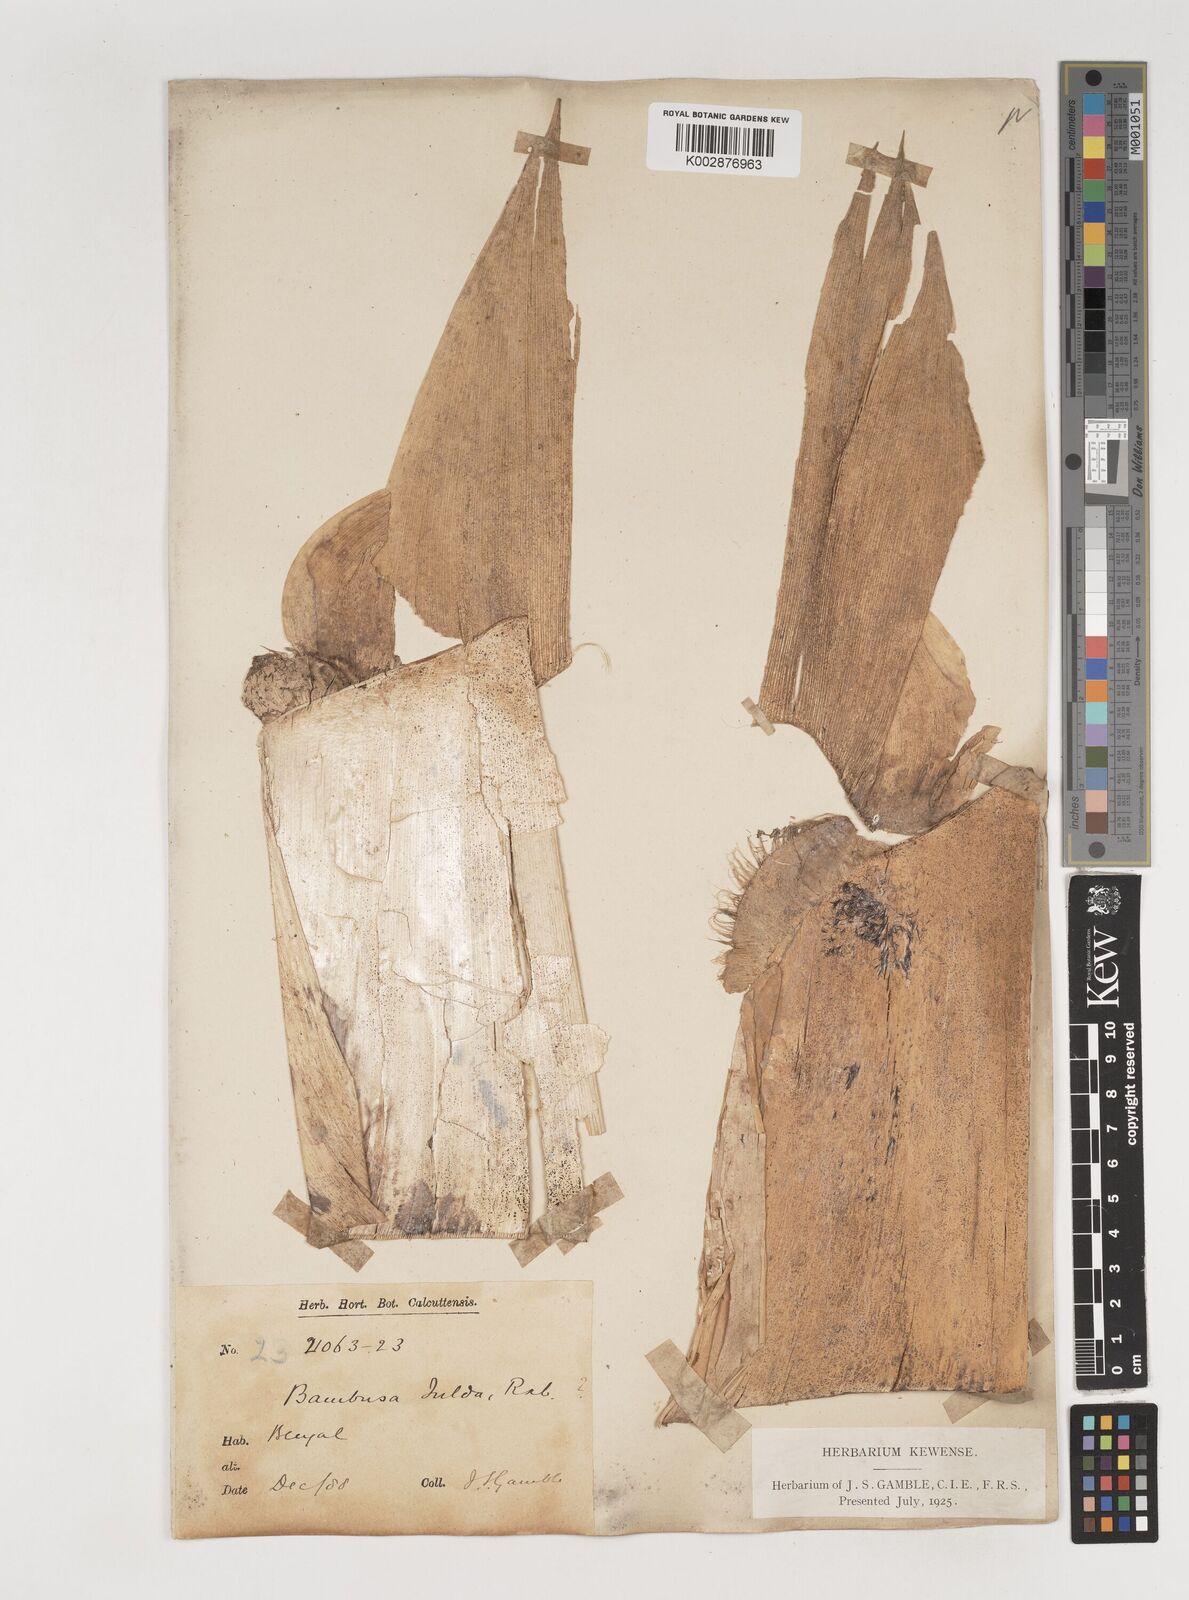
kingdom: Plantae
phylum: Tracheophyta
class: Liliopsida
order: Poales
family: Poaceae
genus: Bambusa
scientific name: Bambusa tulda
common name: Bengal bamboo
